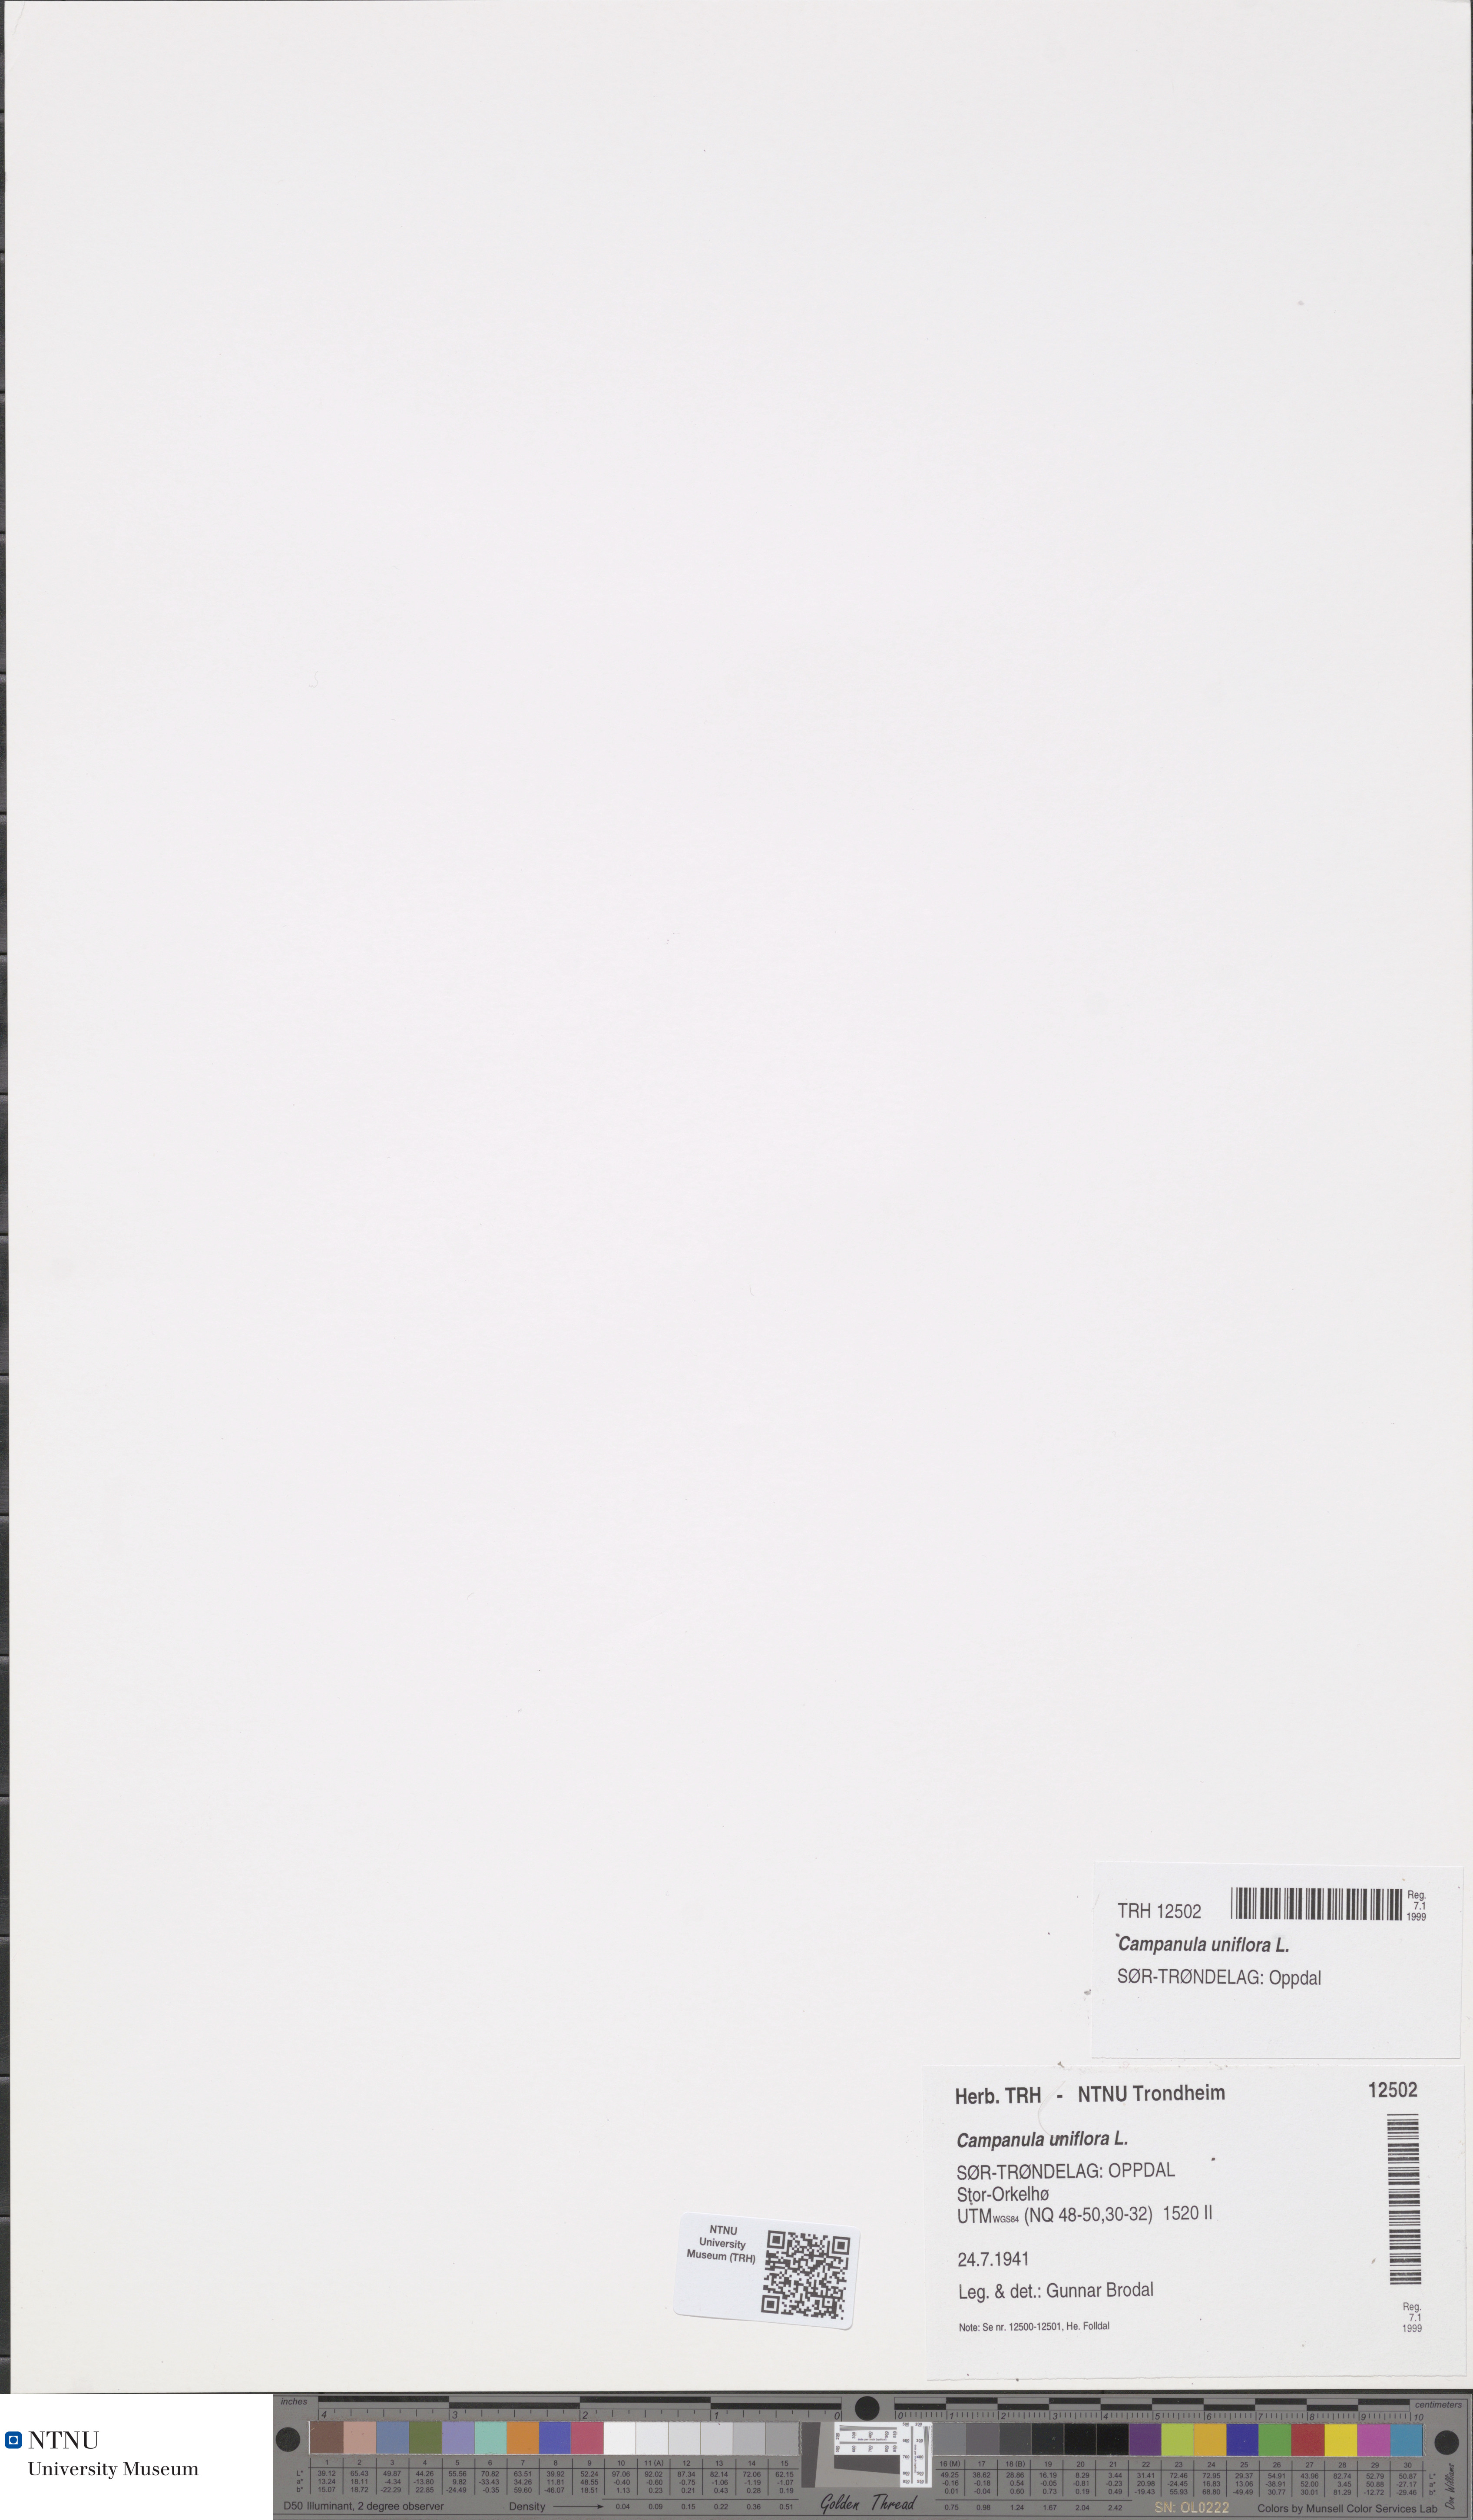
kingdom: Plantae
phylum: Tracheophyta
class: Magnoliopsida
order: Asterales
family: Campanulaceae
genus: Melanocalyx
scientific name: Melanocalyx uniflora
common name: Alpine harebell
